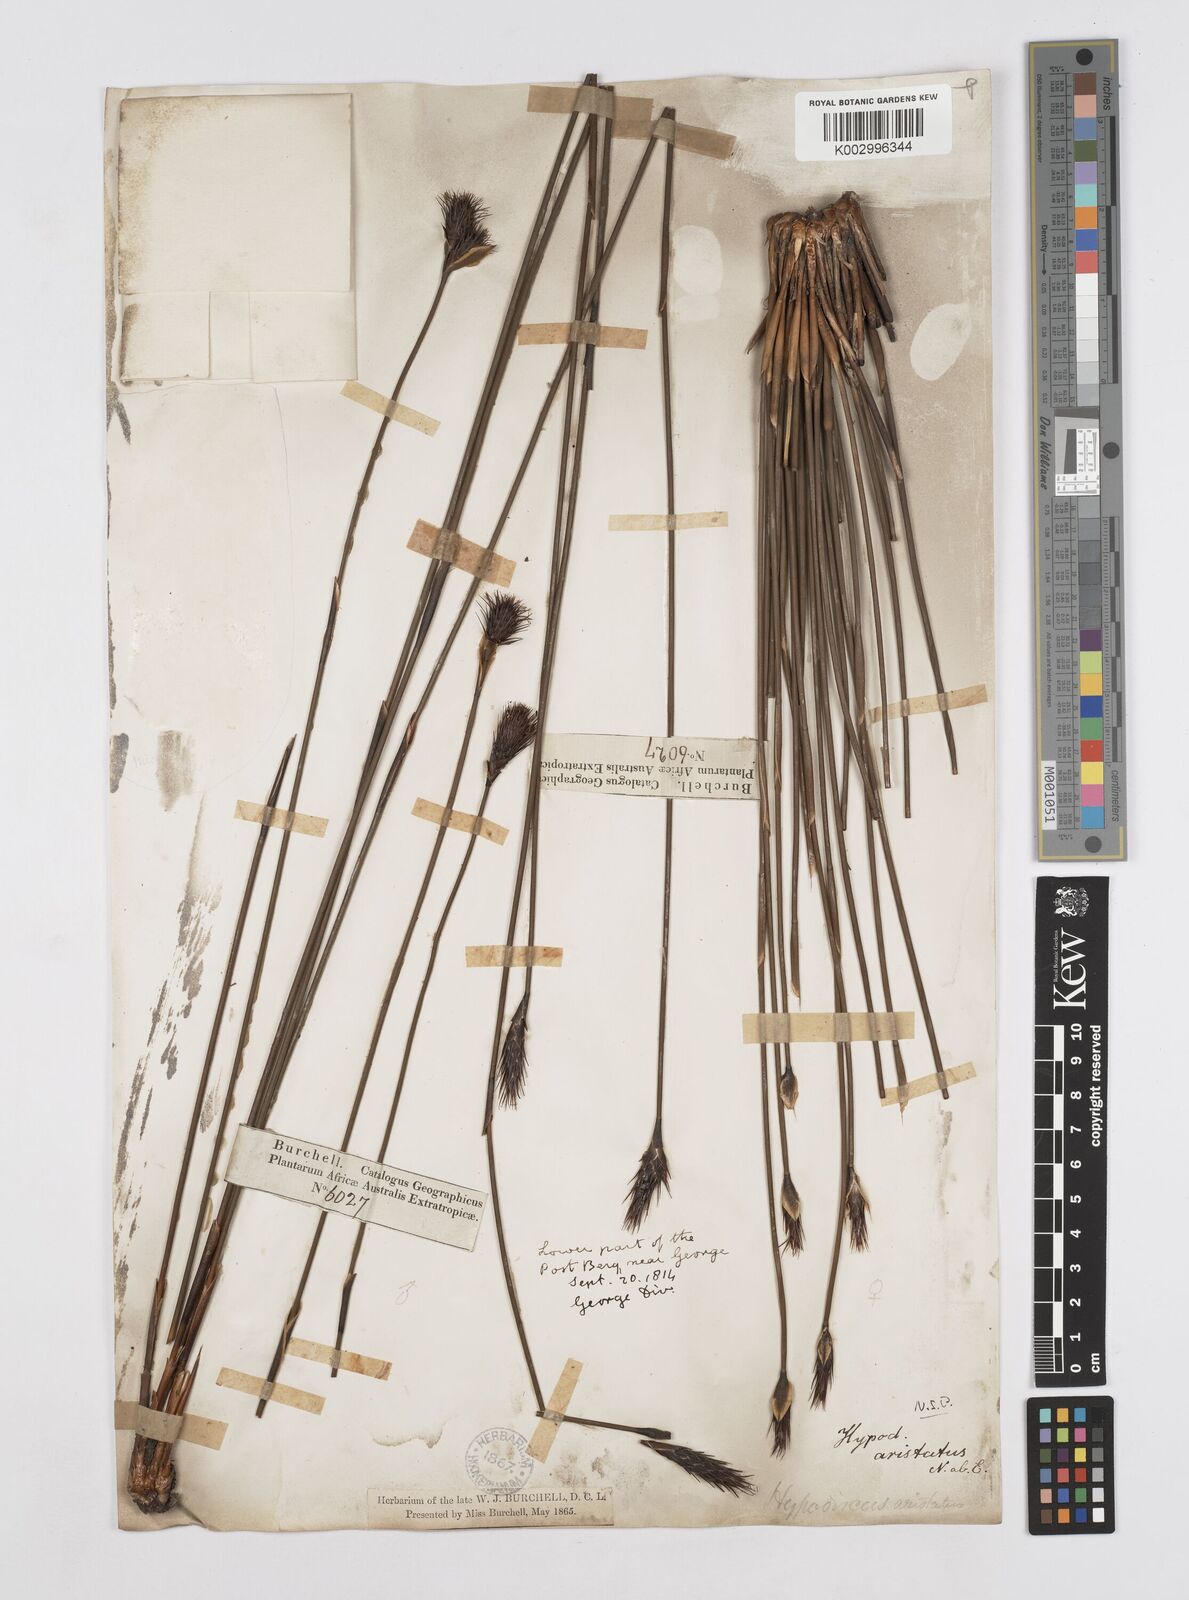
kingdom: Plantae
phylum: Tracheophyta
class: Liliopsida
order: Poales
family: Restionaceae
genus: Hypodiscus
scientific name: Hypodiscus aristatus
